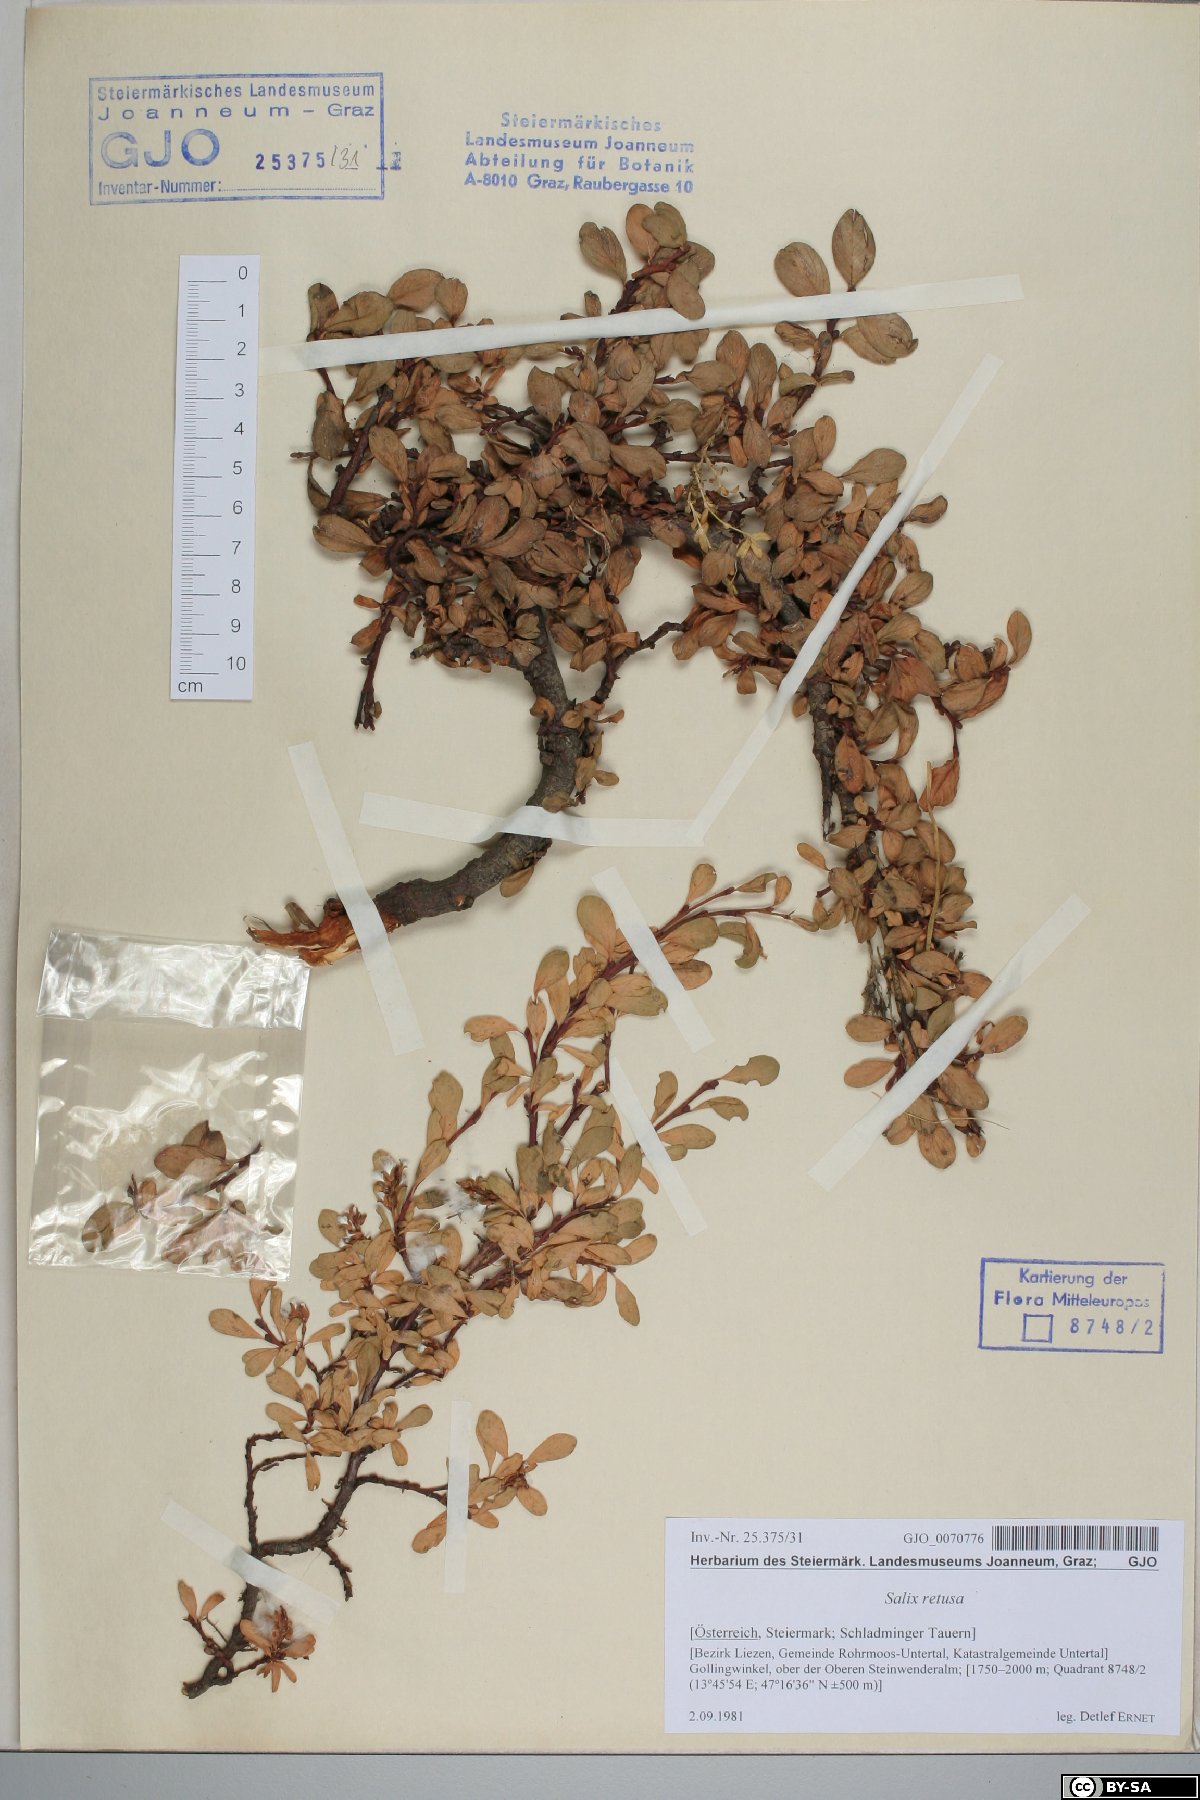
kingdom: Plantae
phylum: Tracheophyta
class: Magnoliopsida
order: Malpighiales
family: Salicaceae
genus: Salix
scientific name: Salix retusa
